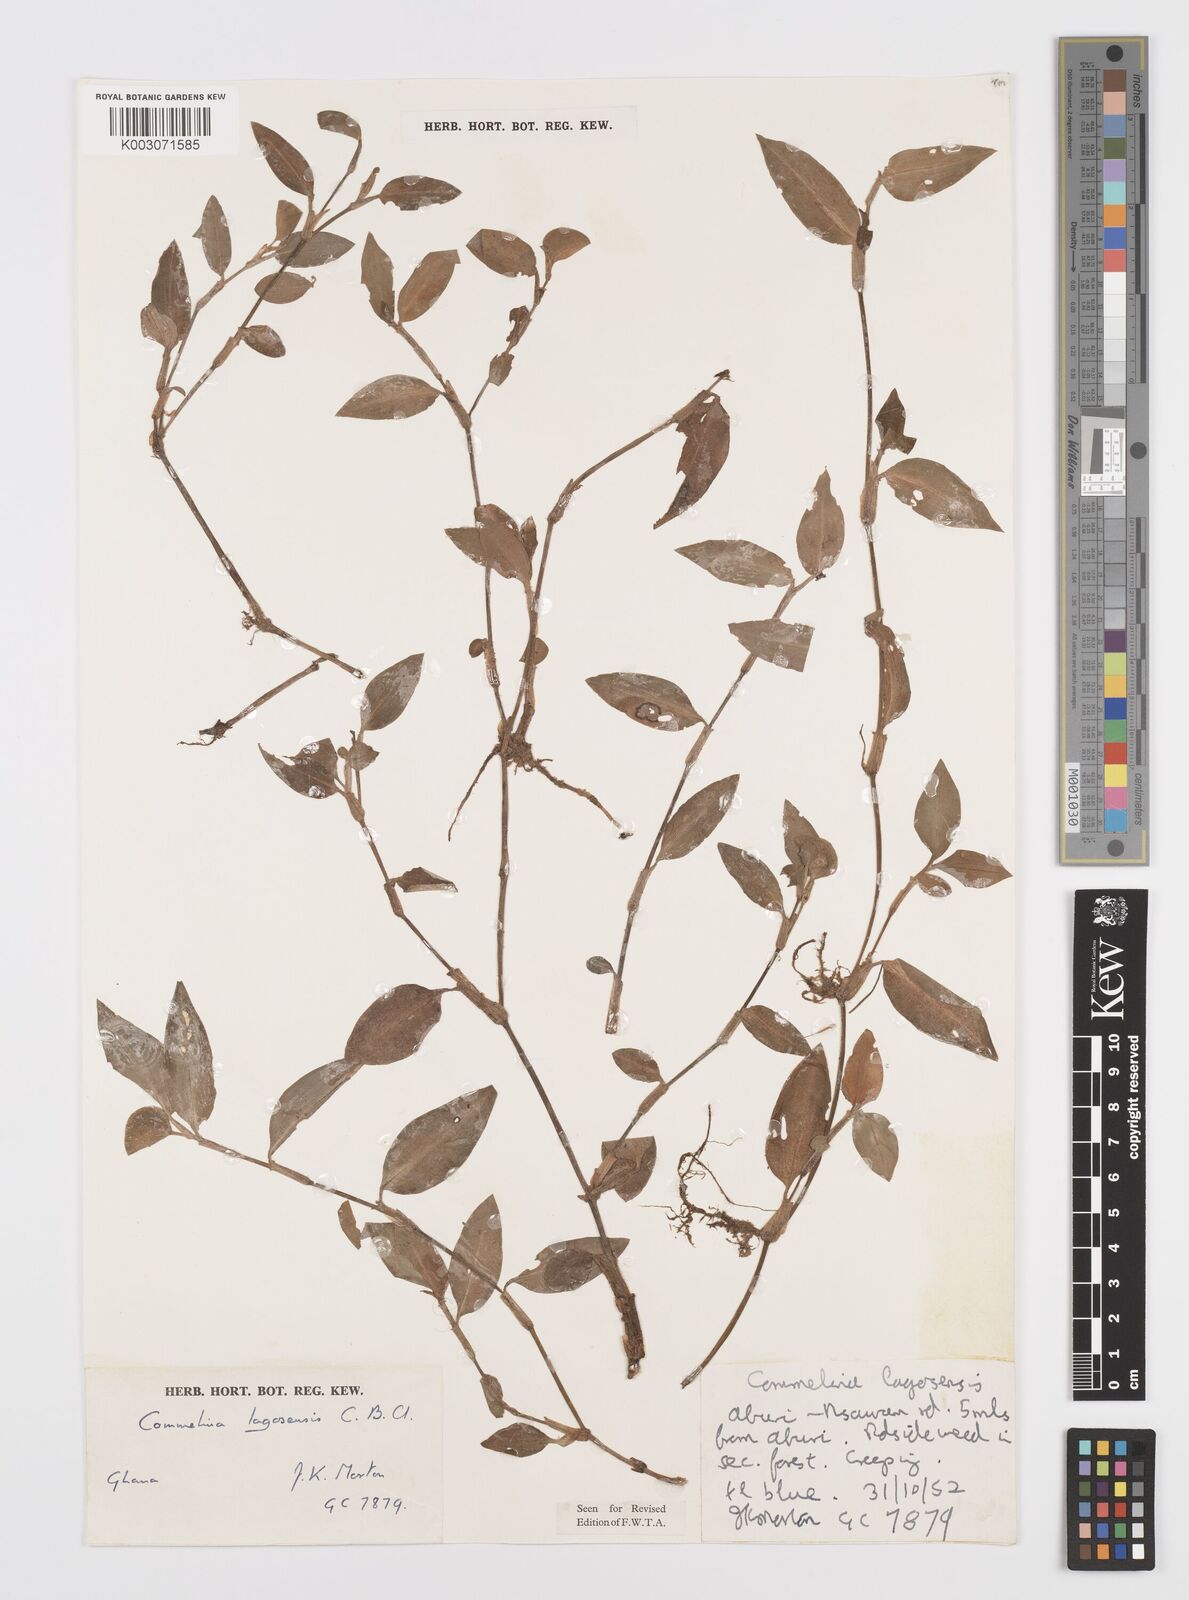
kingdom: Plantae
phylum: Tracheophyta
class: Liliopsida
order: Commelinales
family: Commelinaceae
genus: Commelina
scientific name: Commelina bracteosa
